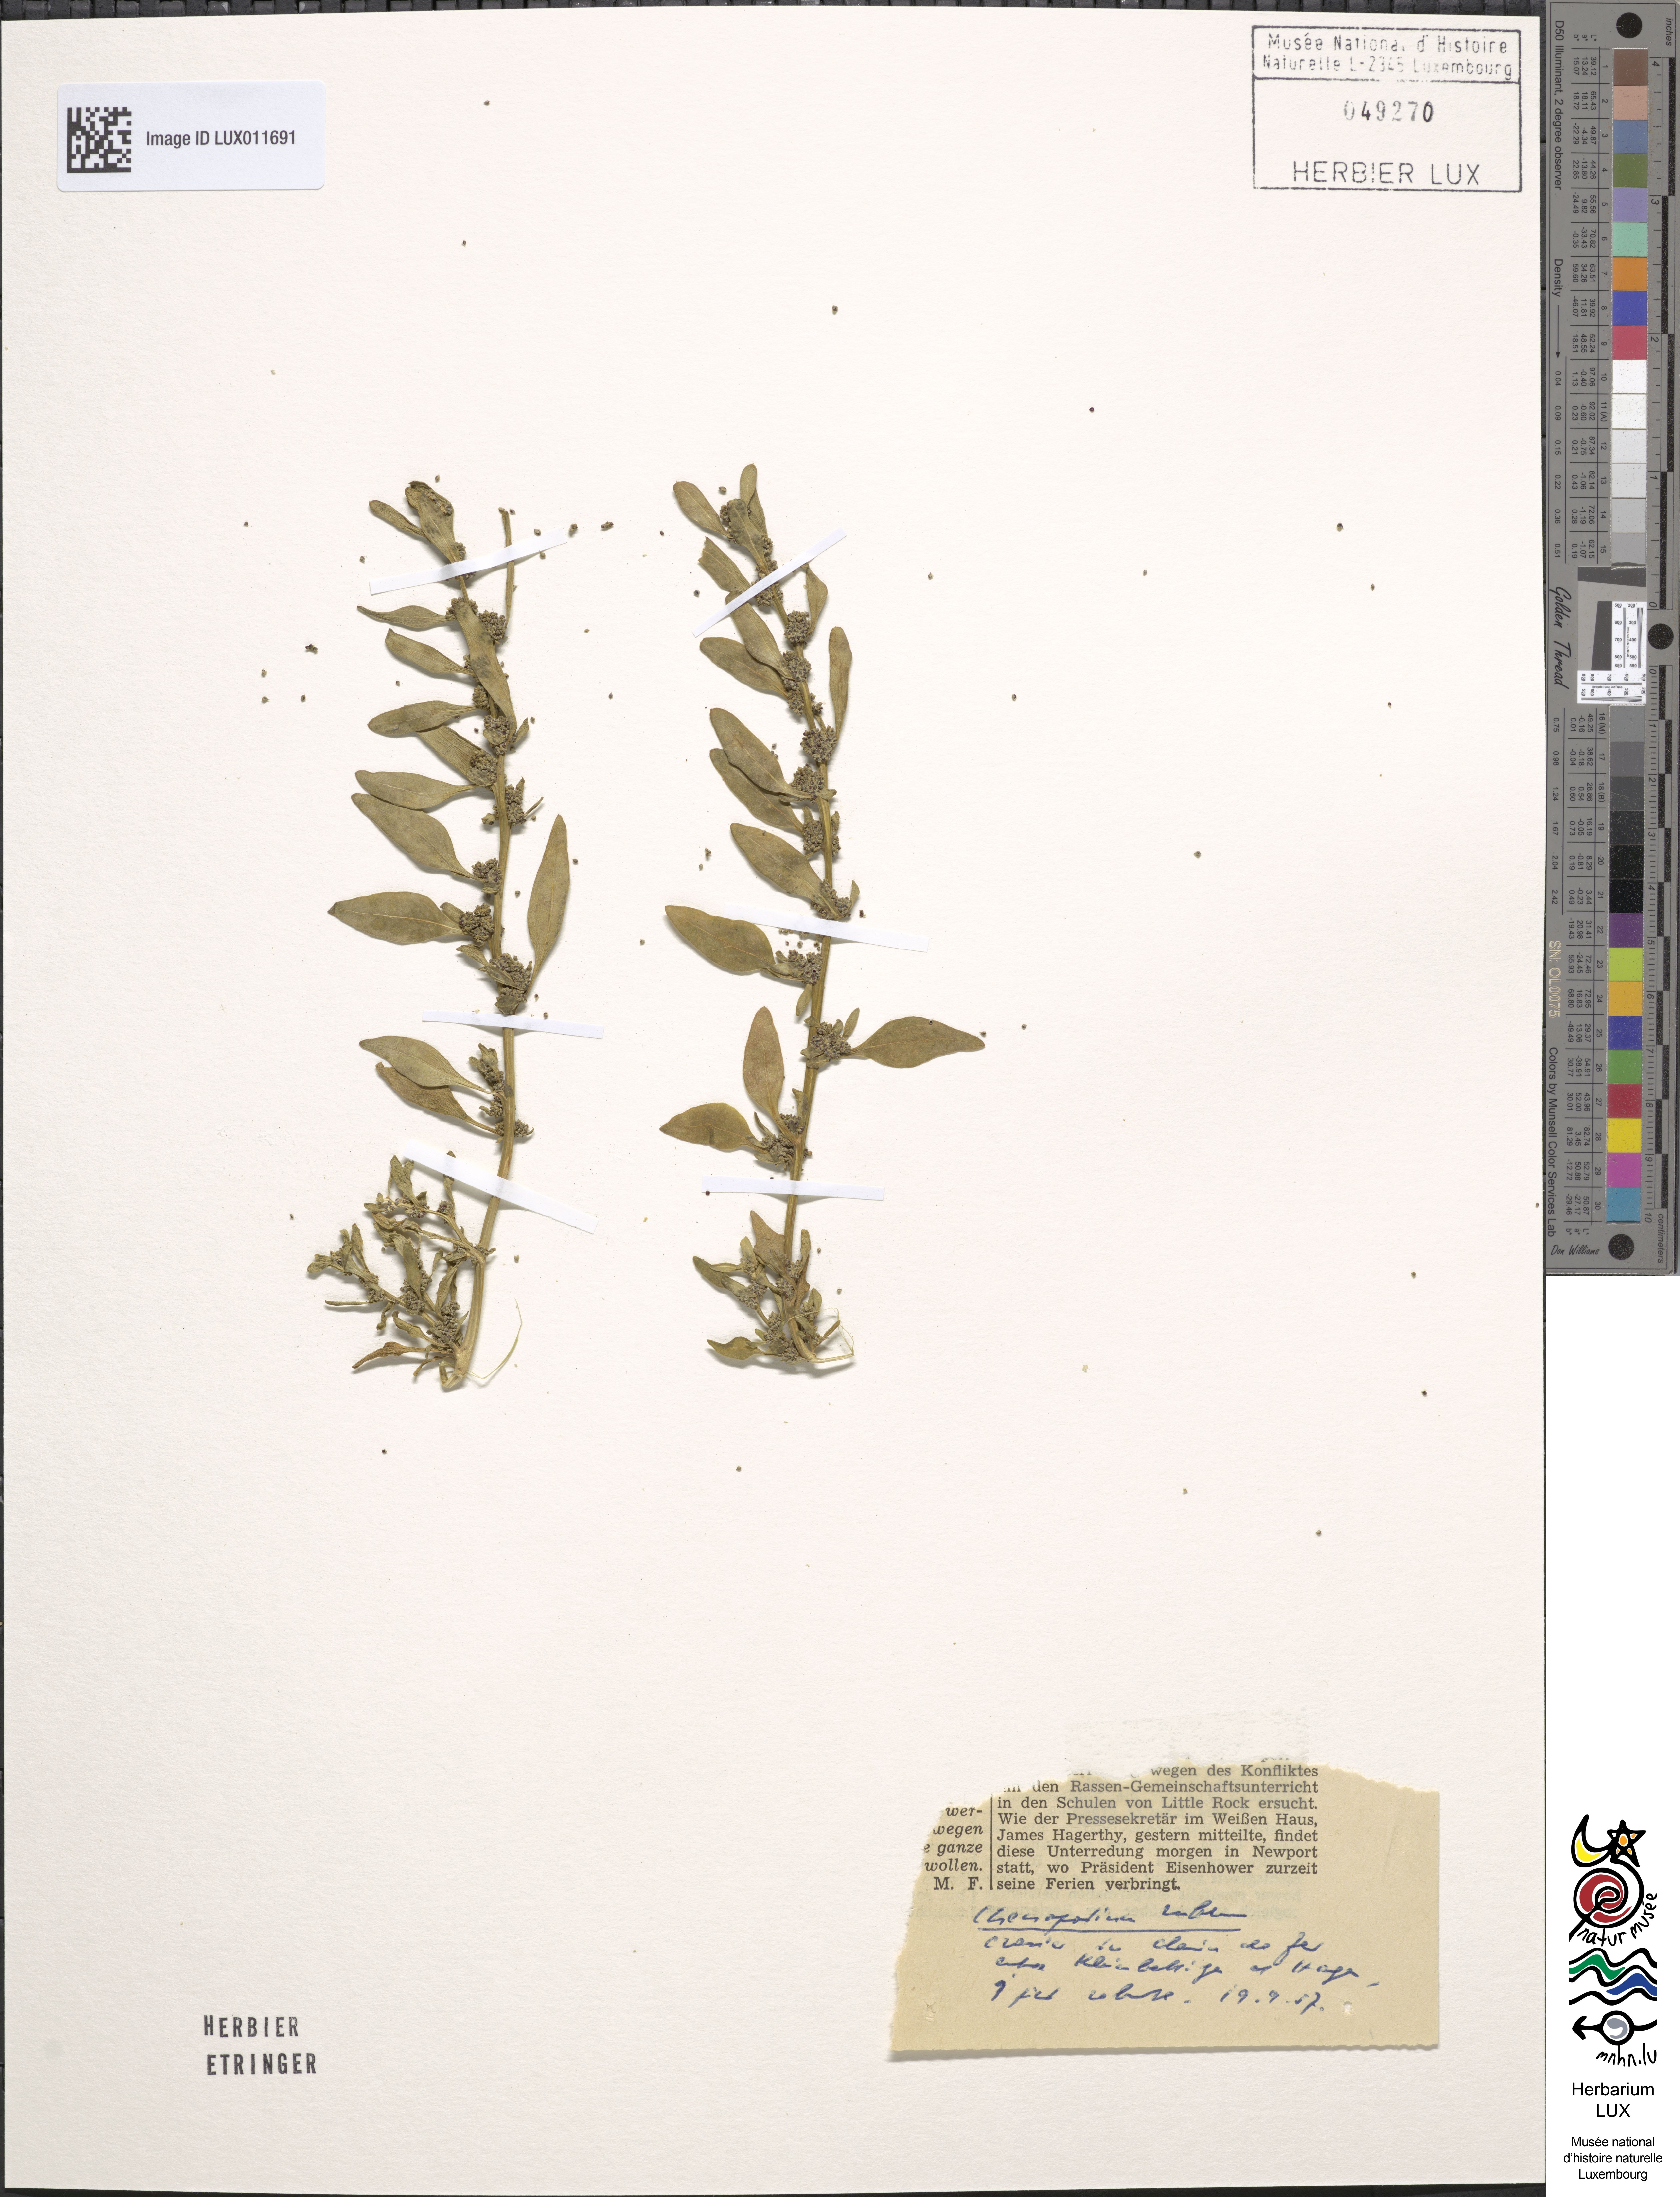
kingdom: Plantae
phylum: Tracheophyta
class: Magnoliopsida
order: Caryophyllales
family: Amaranthaceae
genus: Oxybasis
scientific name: Oxybasis rubra
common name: Red goosefoot
